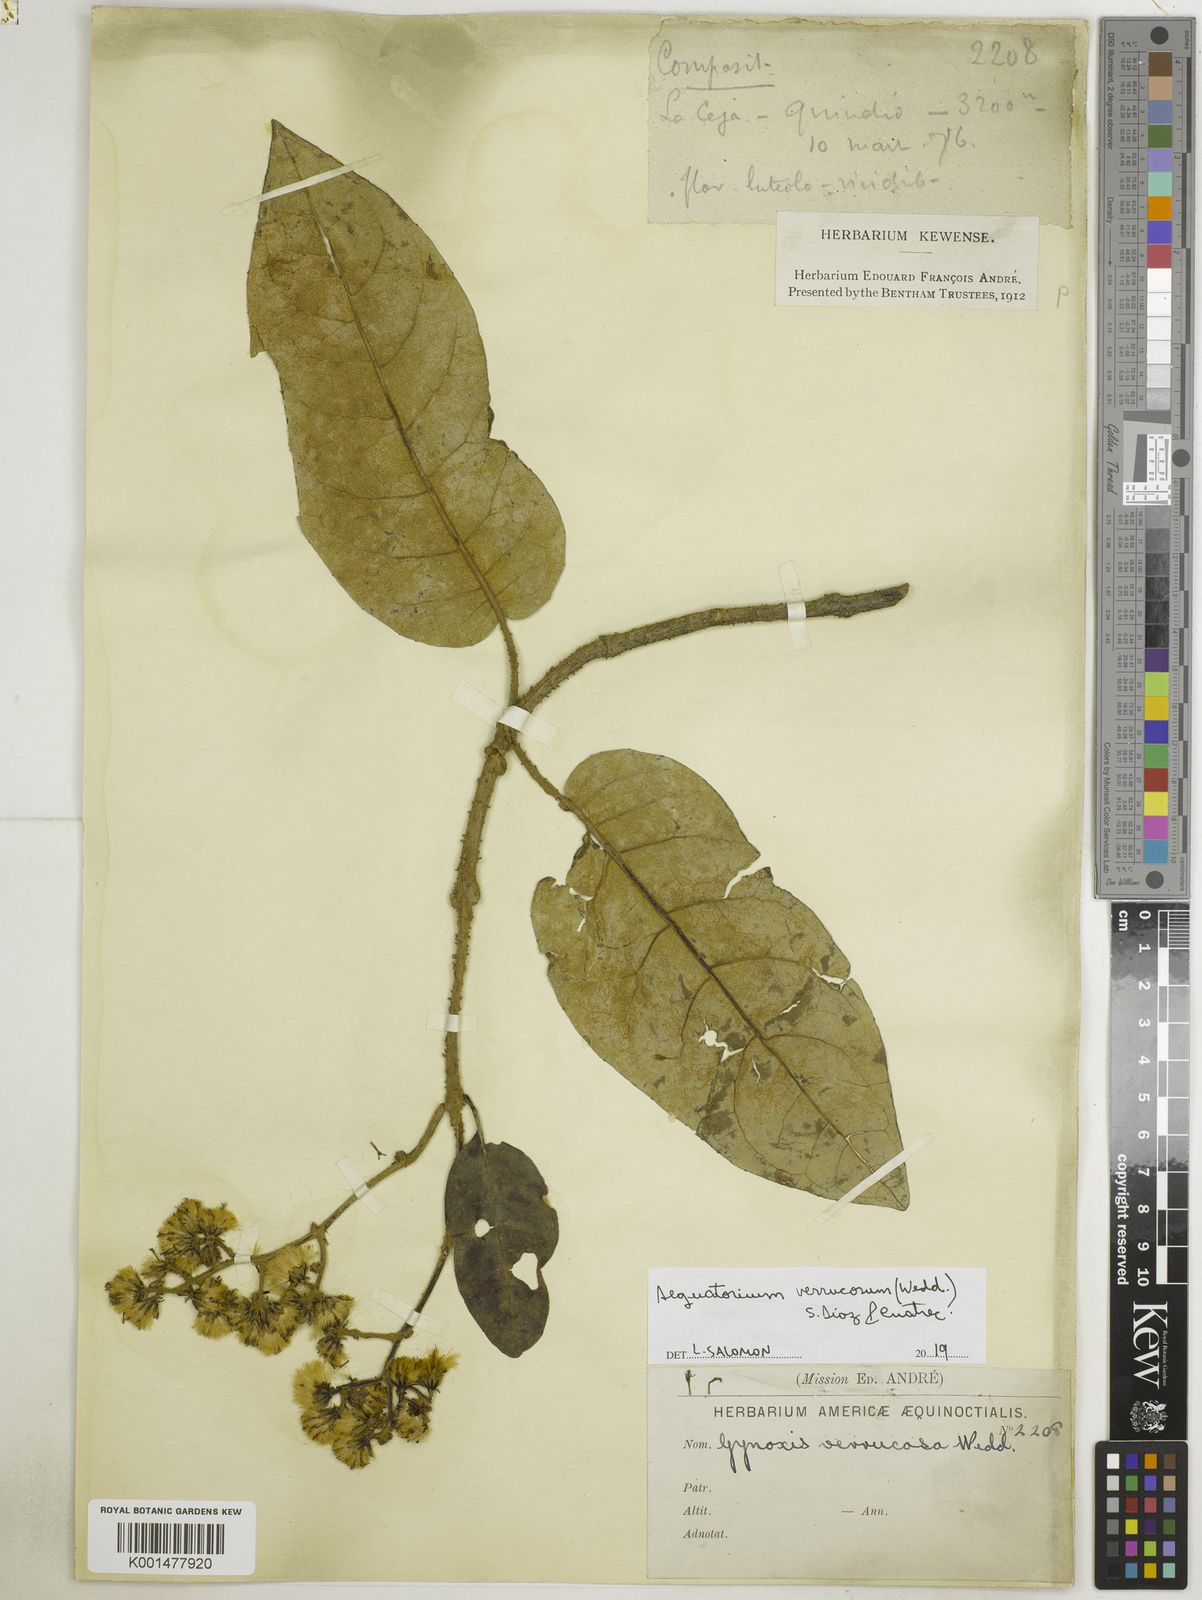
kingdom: Plantae
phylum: Tracheophyta
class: Magnoliopsida
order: Asterales
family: Asteraceae
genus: Aequatorium
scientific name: Aequatorium verrucosum
